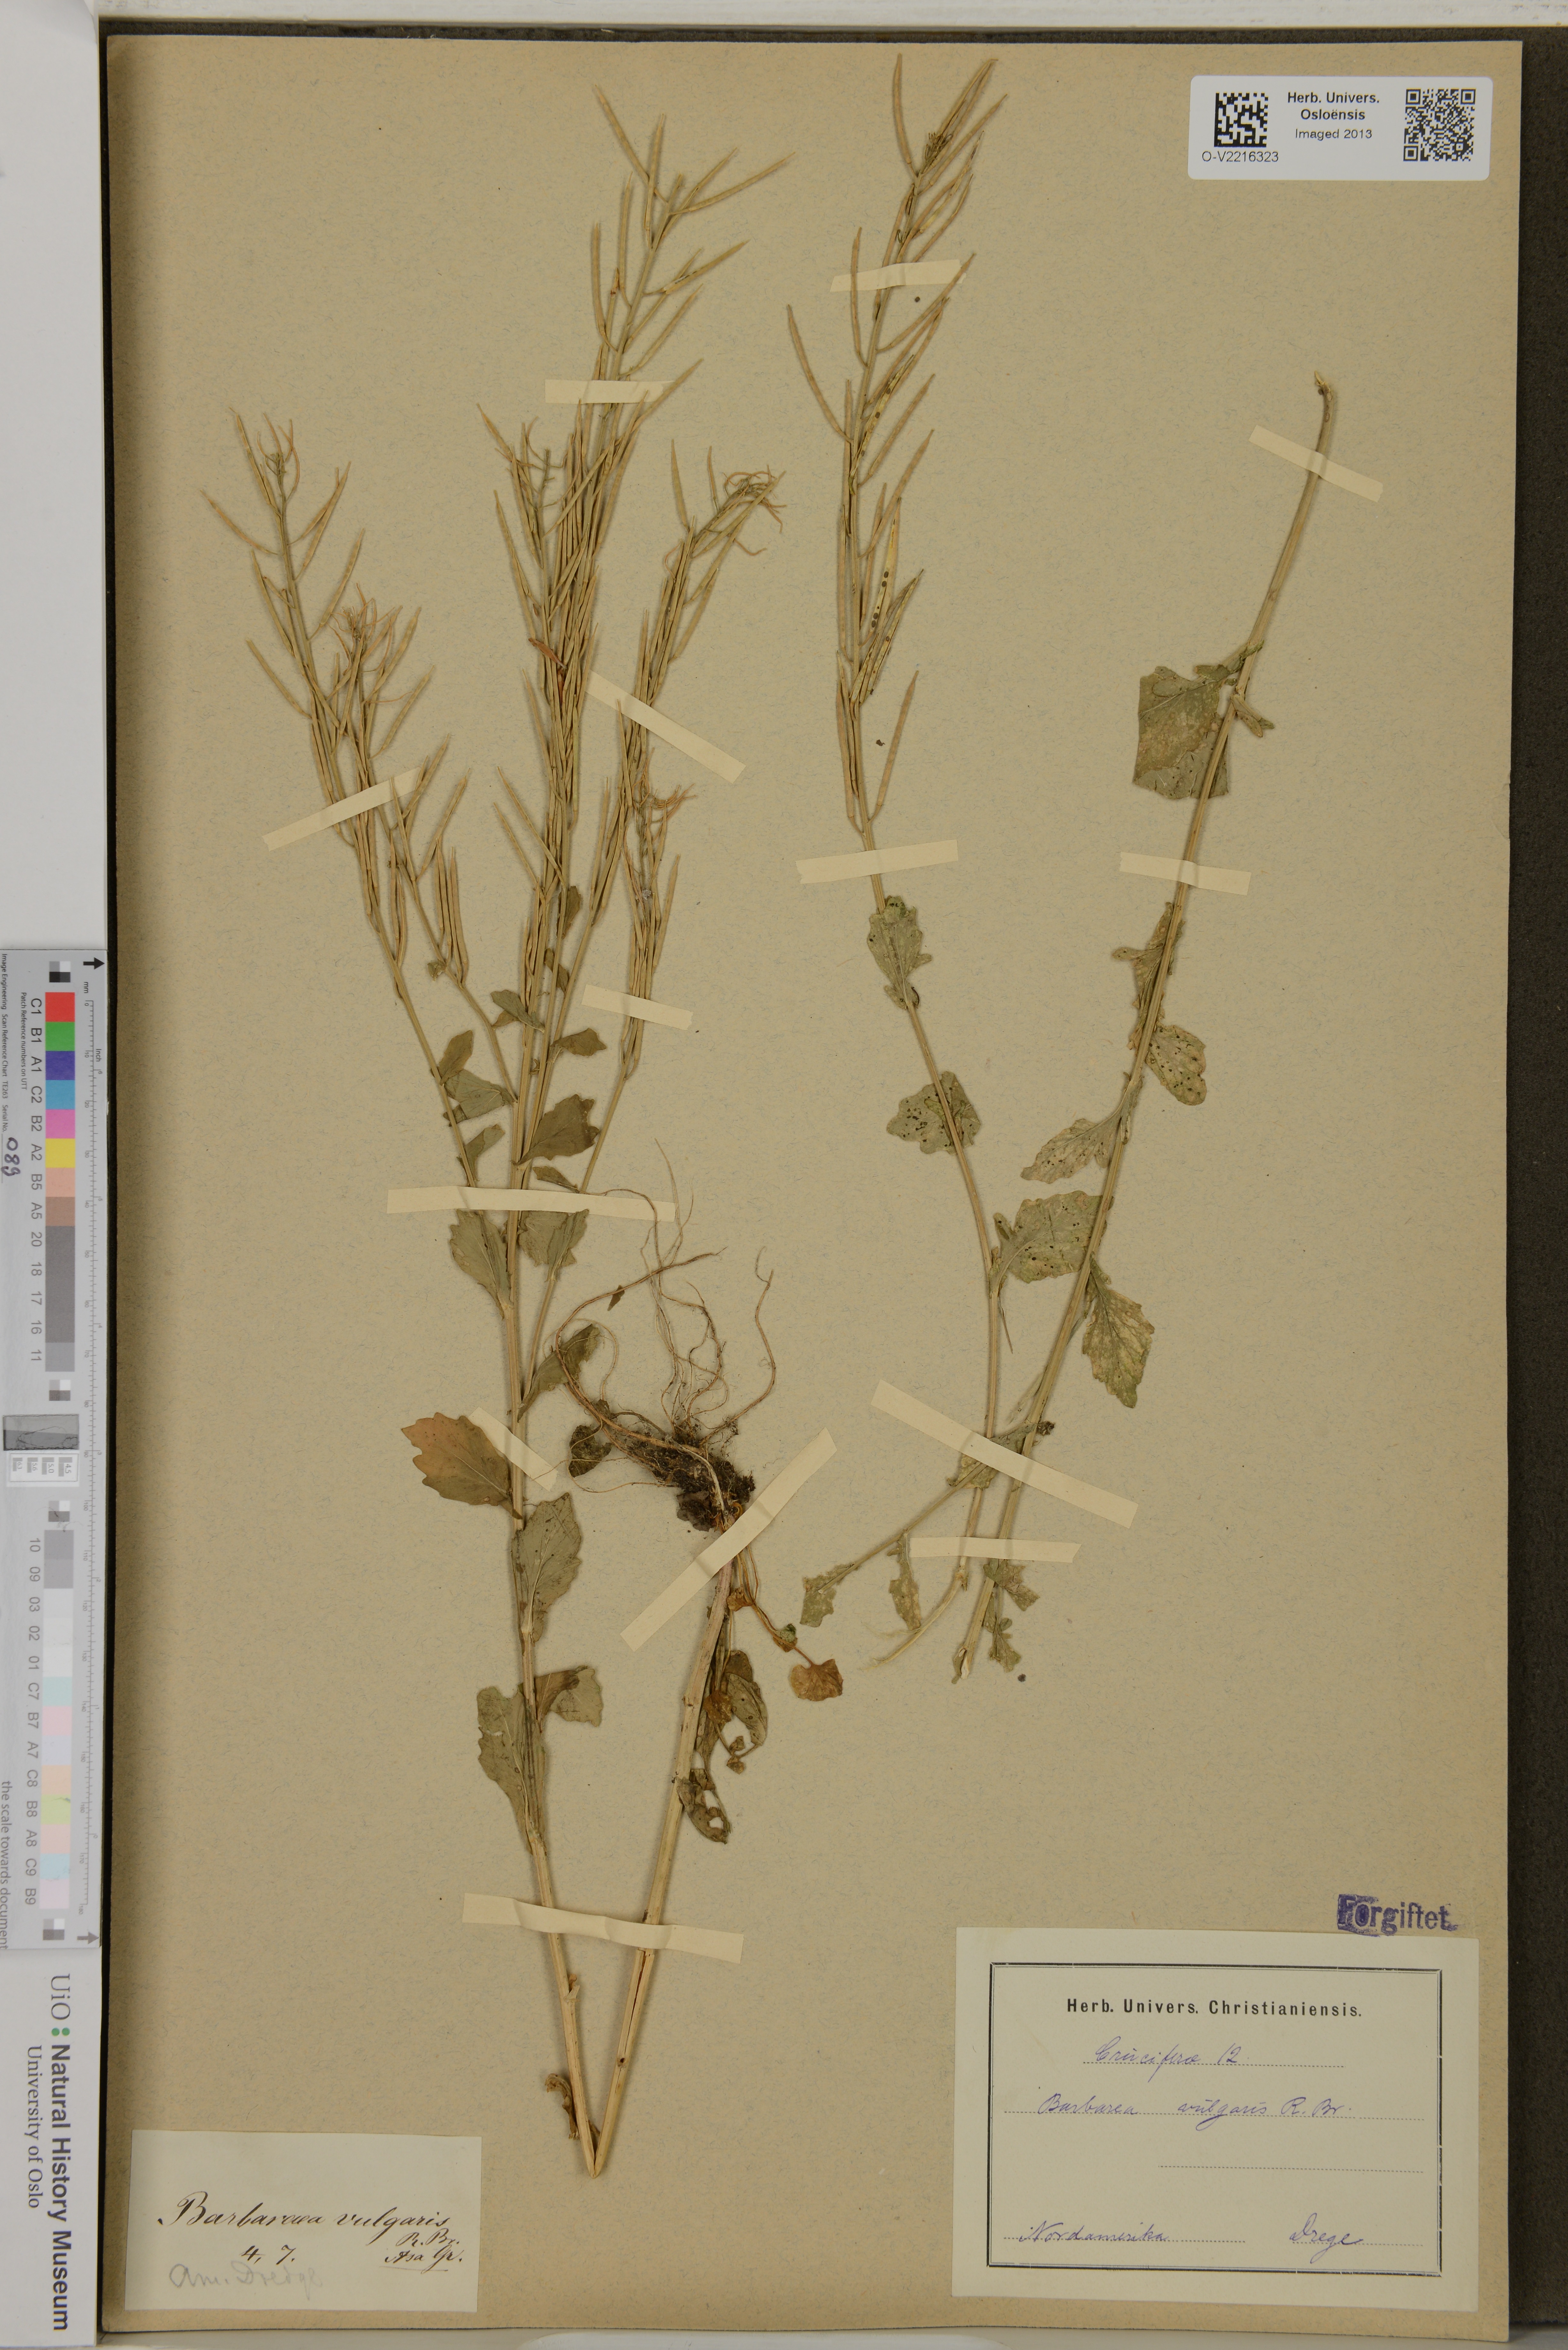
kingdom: Plantae
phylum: Tracheophyta
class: Magnoliopsida
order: Brassicales
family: Brassicaceae
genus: Barbarea
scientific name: Barbarea vulgaris
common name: Cressy-greens
